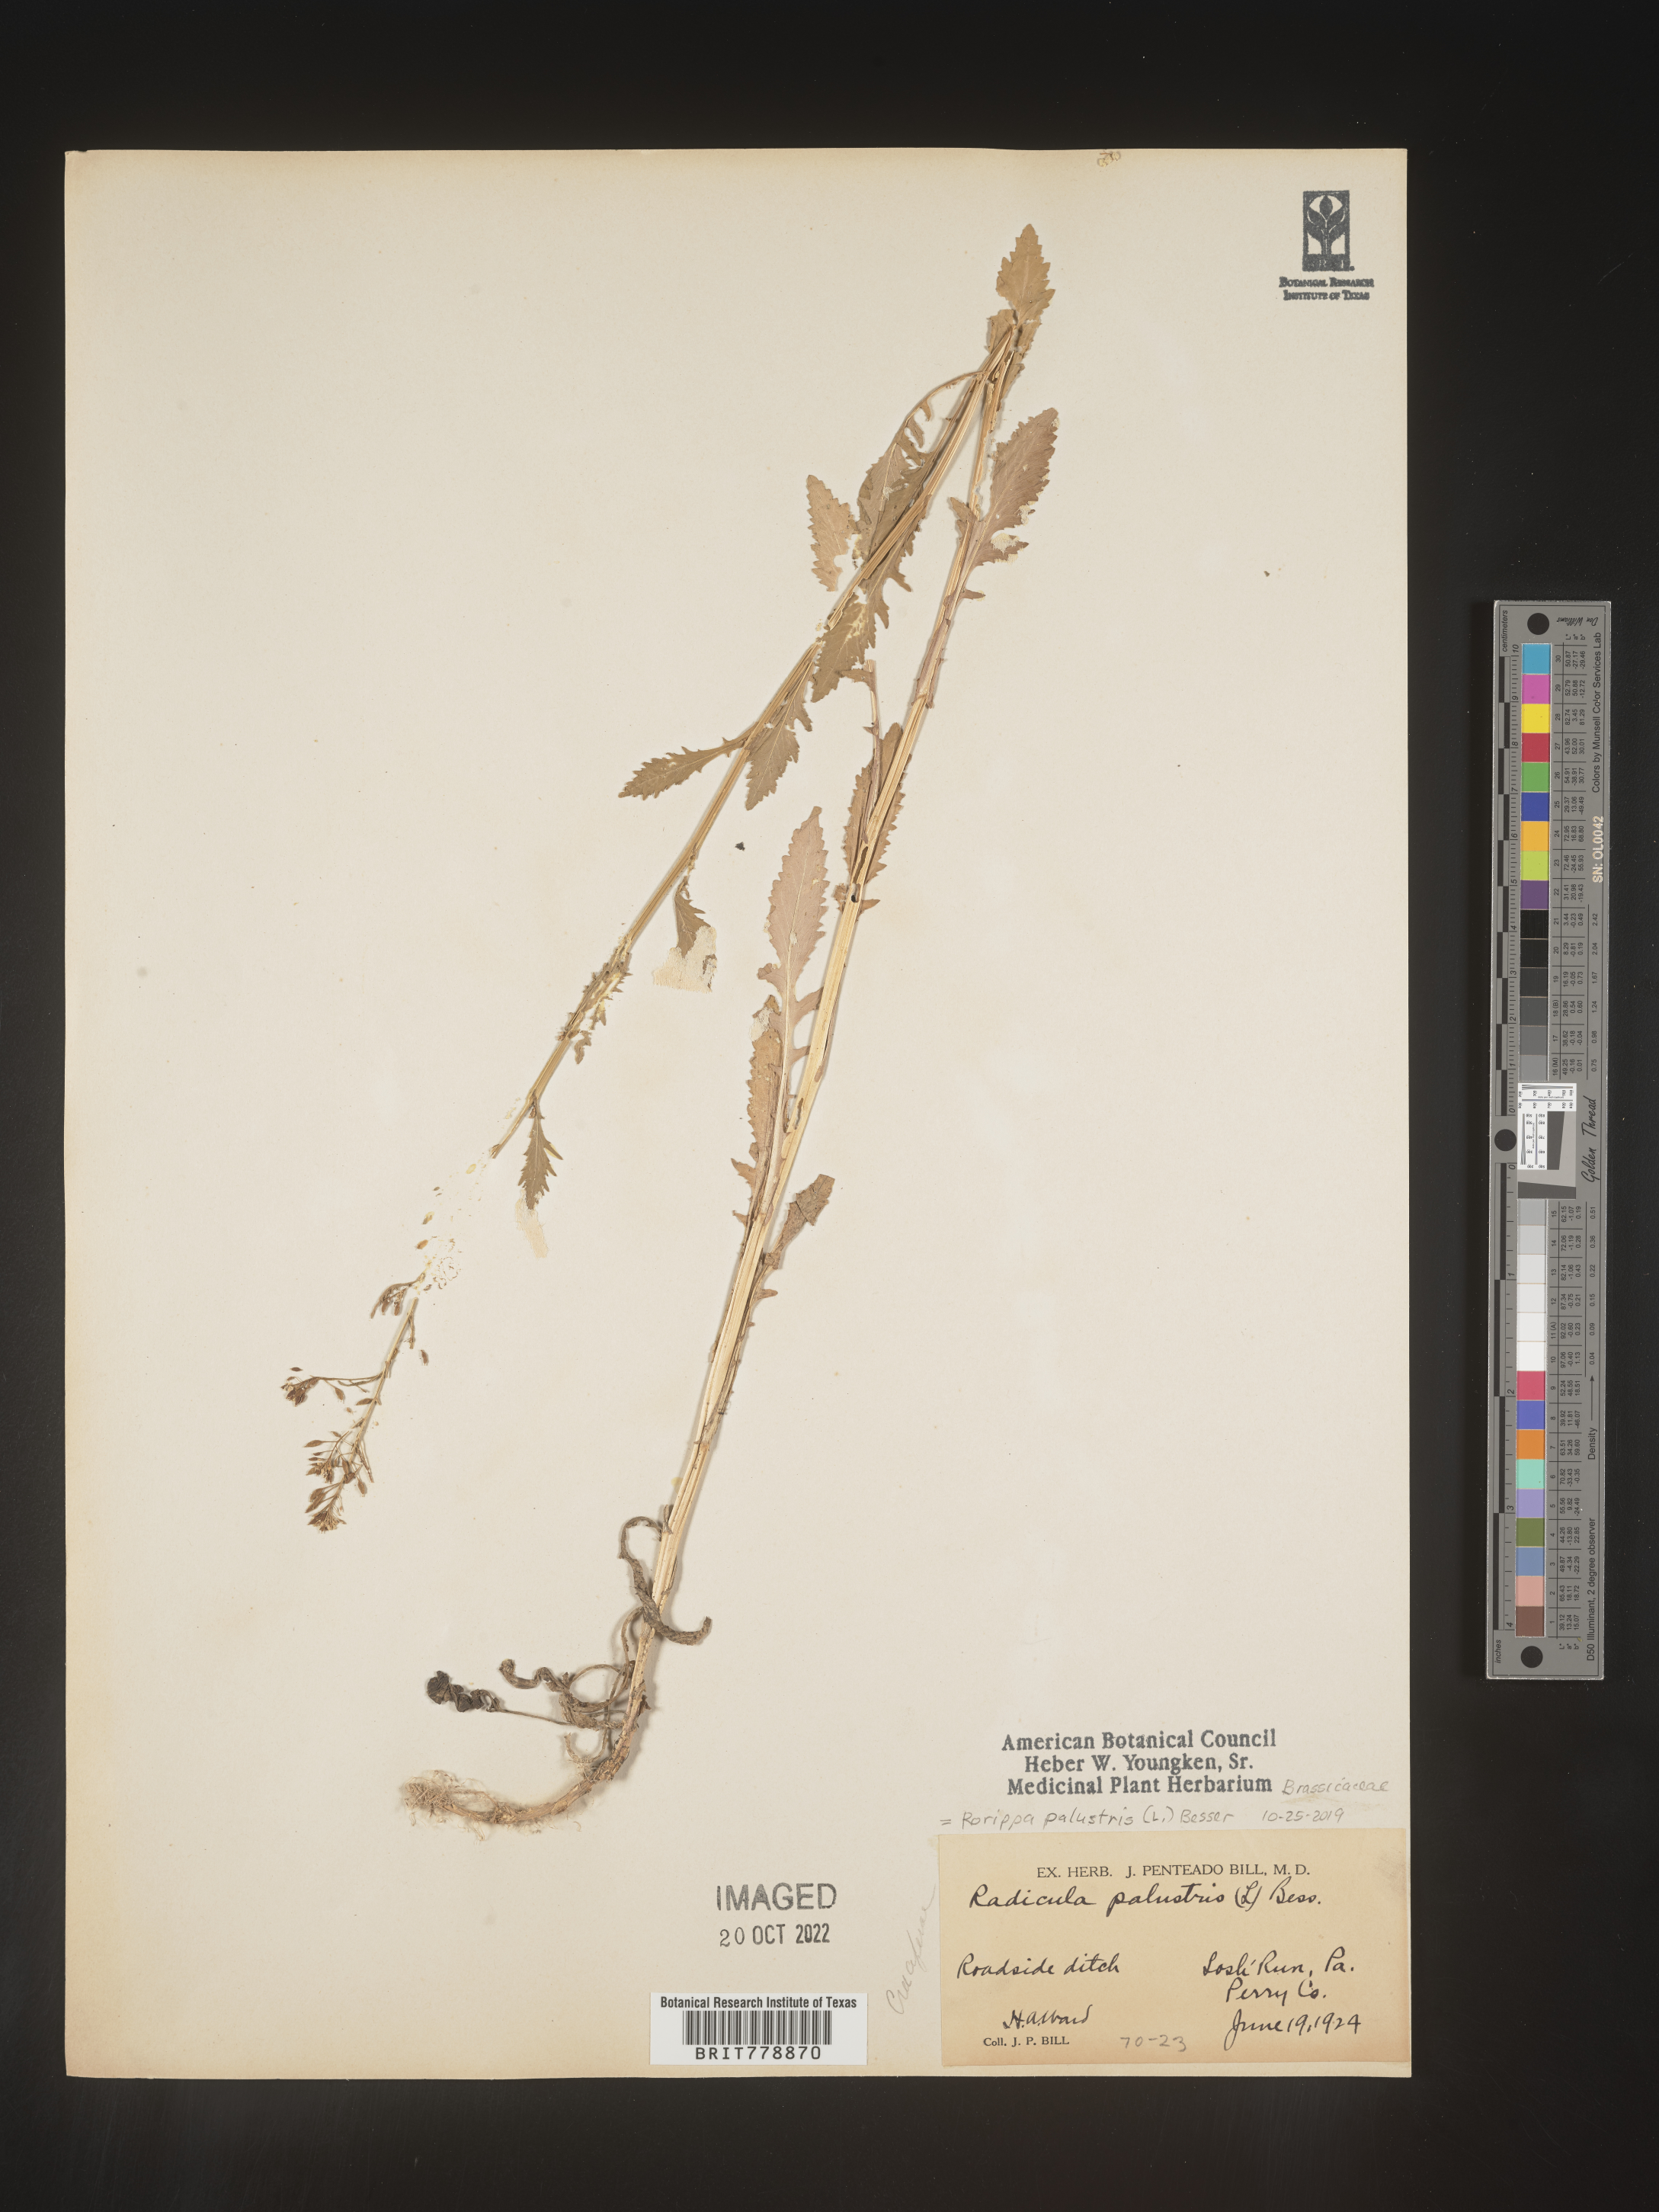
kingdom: Plantae
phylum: Tracheophyta
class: Magnoliopsida
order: Brassicales
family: Brassicaceae
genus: Rorippa
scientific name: Rorippa palustris
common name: Marsh yellow-cress
